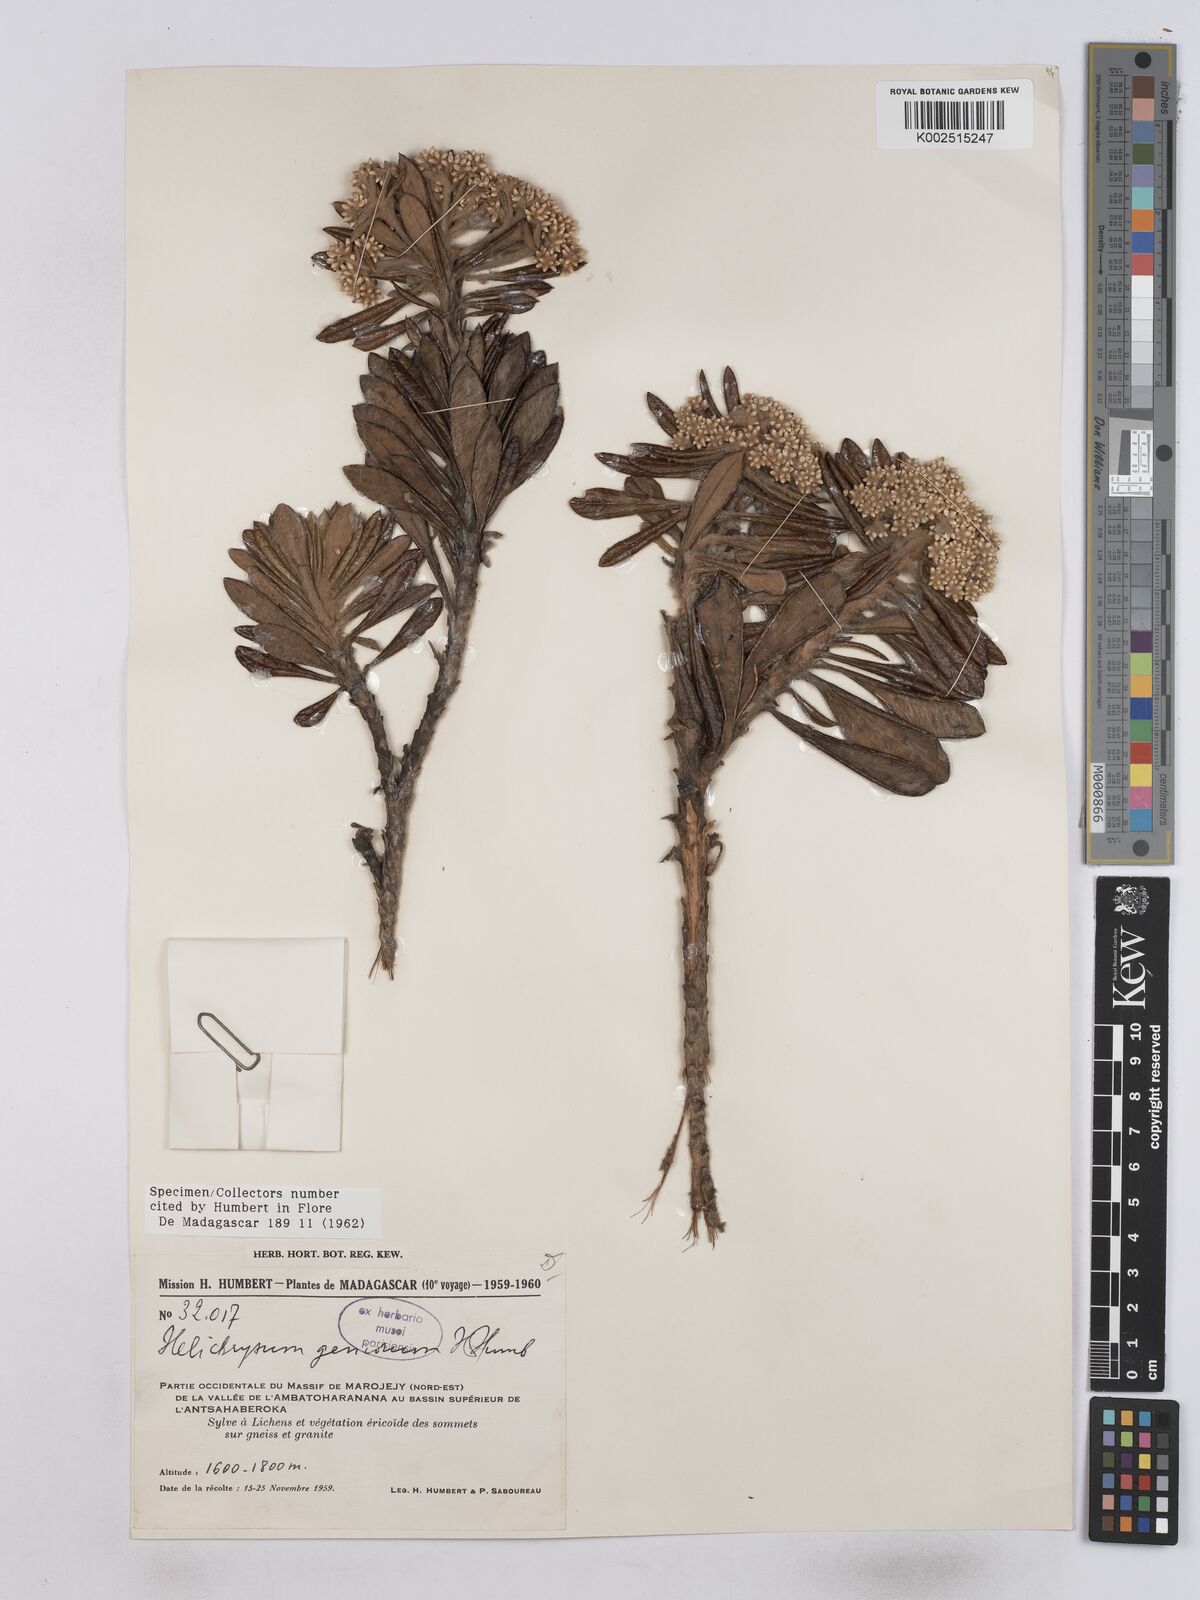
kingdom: Plantae
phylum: Tracheophyta
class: Magnoliopsida
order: Asterales
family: Asteraceae
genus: Helichrysum
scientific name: Helichrysum geniorum
